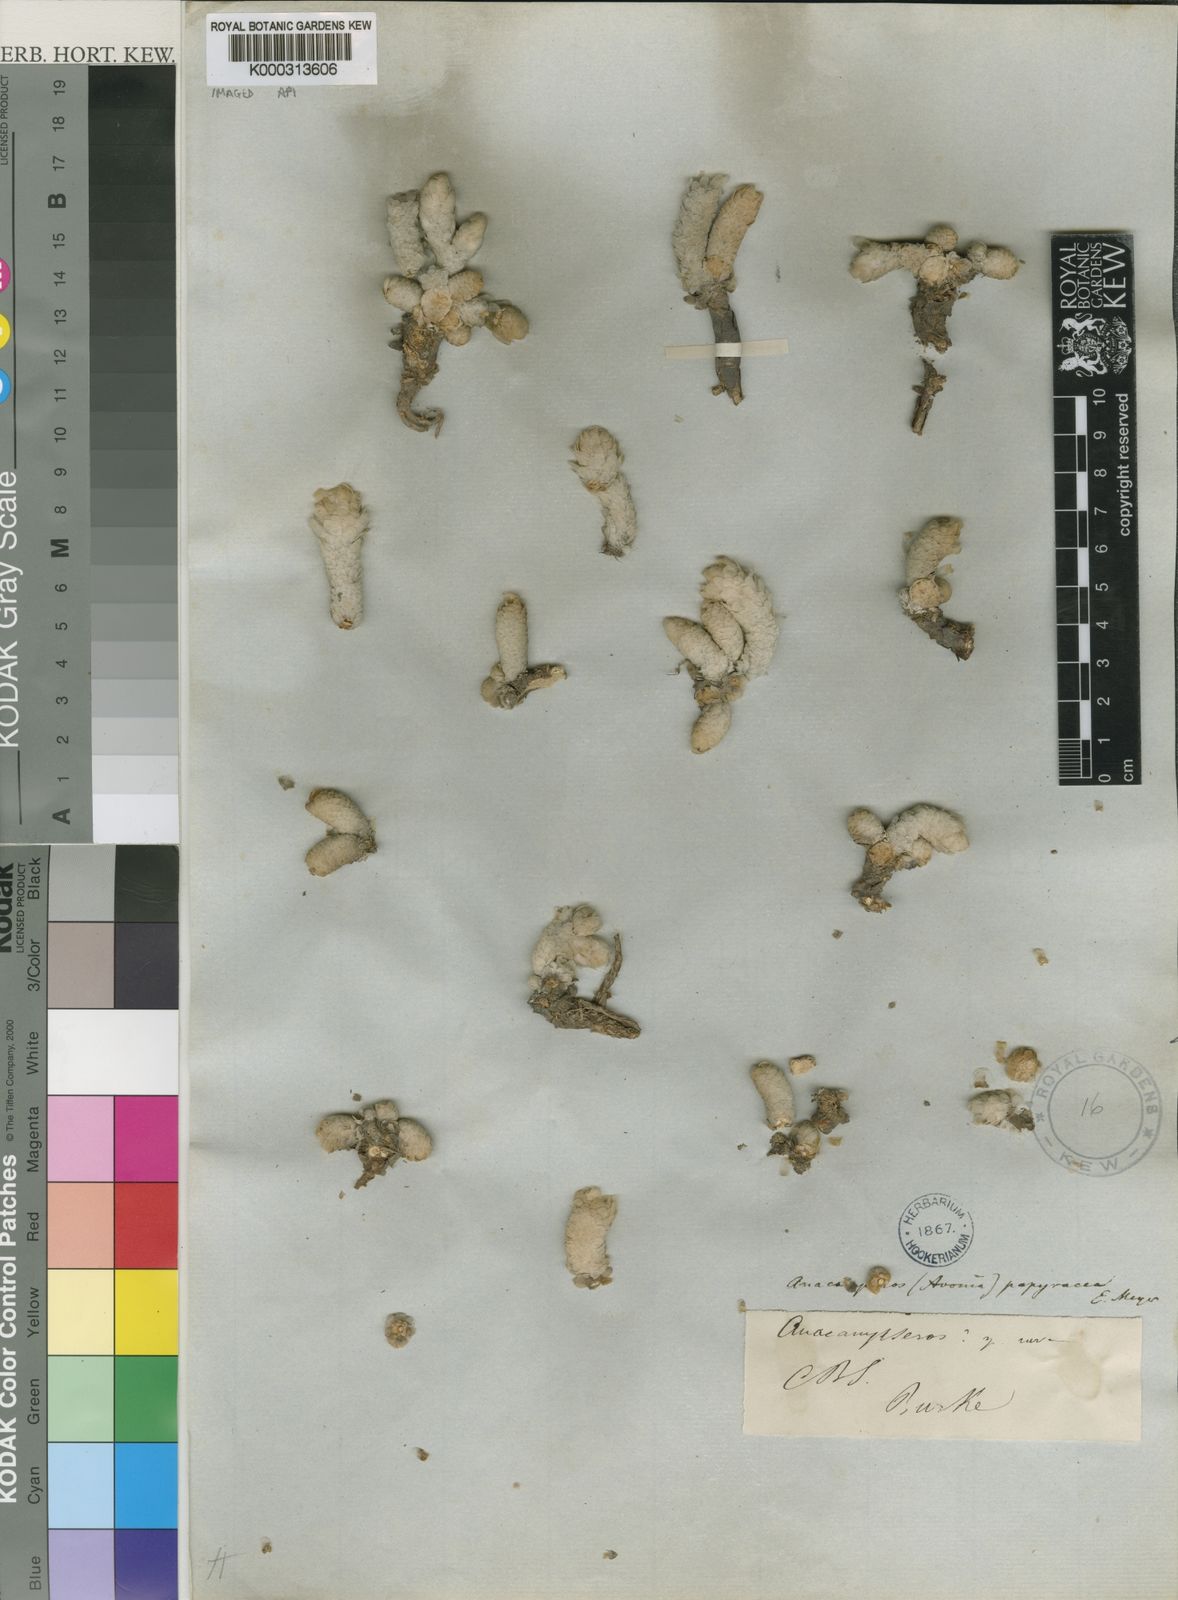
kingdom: Plantae
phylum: Tracheophyta
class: Magnoliopsida
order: Caryophyllales
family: Anacampserotaceae
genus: Anacampseros
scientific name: Anacampseros
